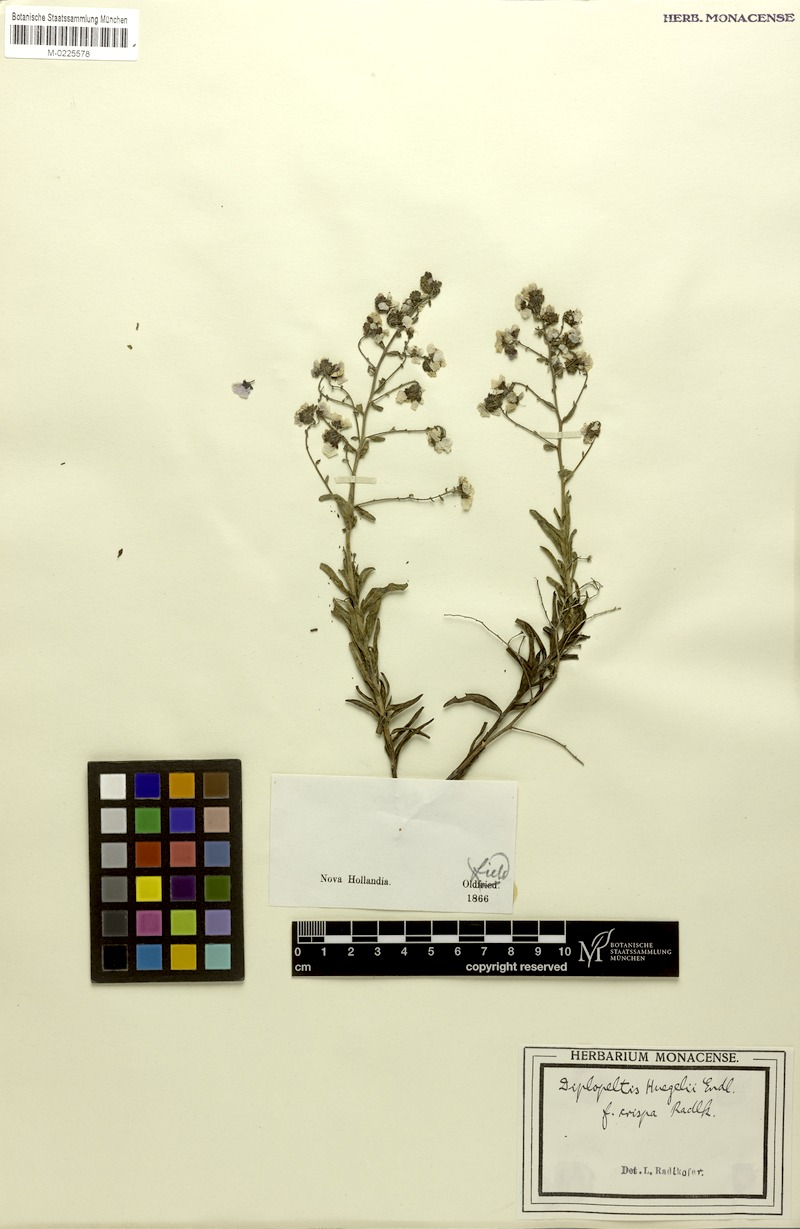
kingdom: Plantae
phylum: Tracheophyta
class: Magnoliopsida
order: Sapindales
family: Sapindaceae
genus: Diplopeltis
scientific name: Diplopeltis huegelii
